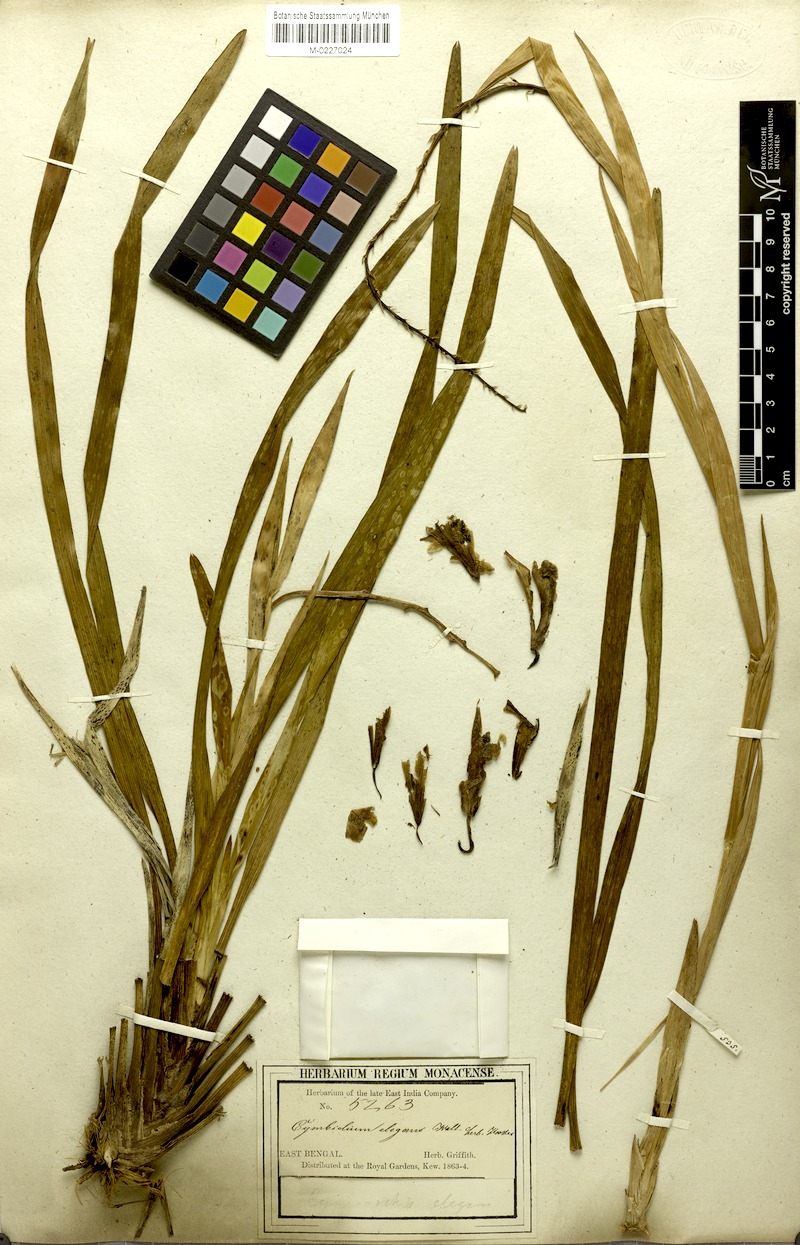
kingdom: Plantae
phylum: Tracheophyta
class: Liliopsida
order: Asparagales
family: Orchidaceae
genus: Cymbidium
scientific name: Cymbidium elegans
